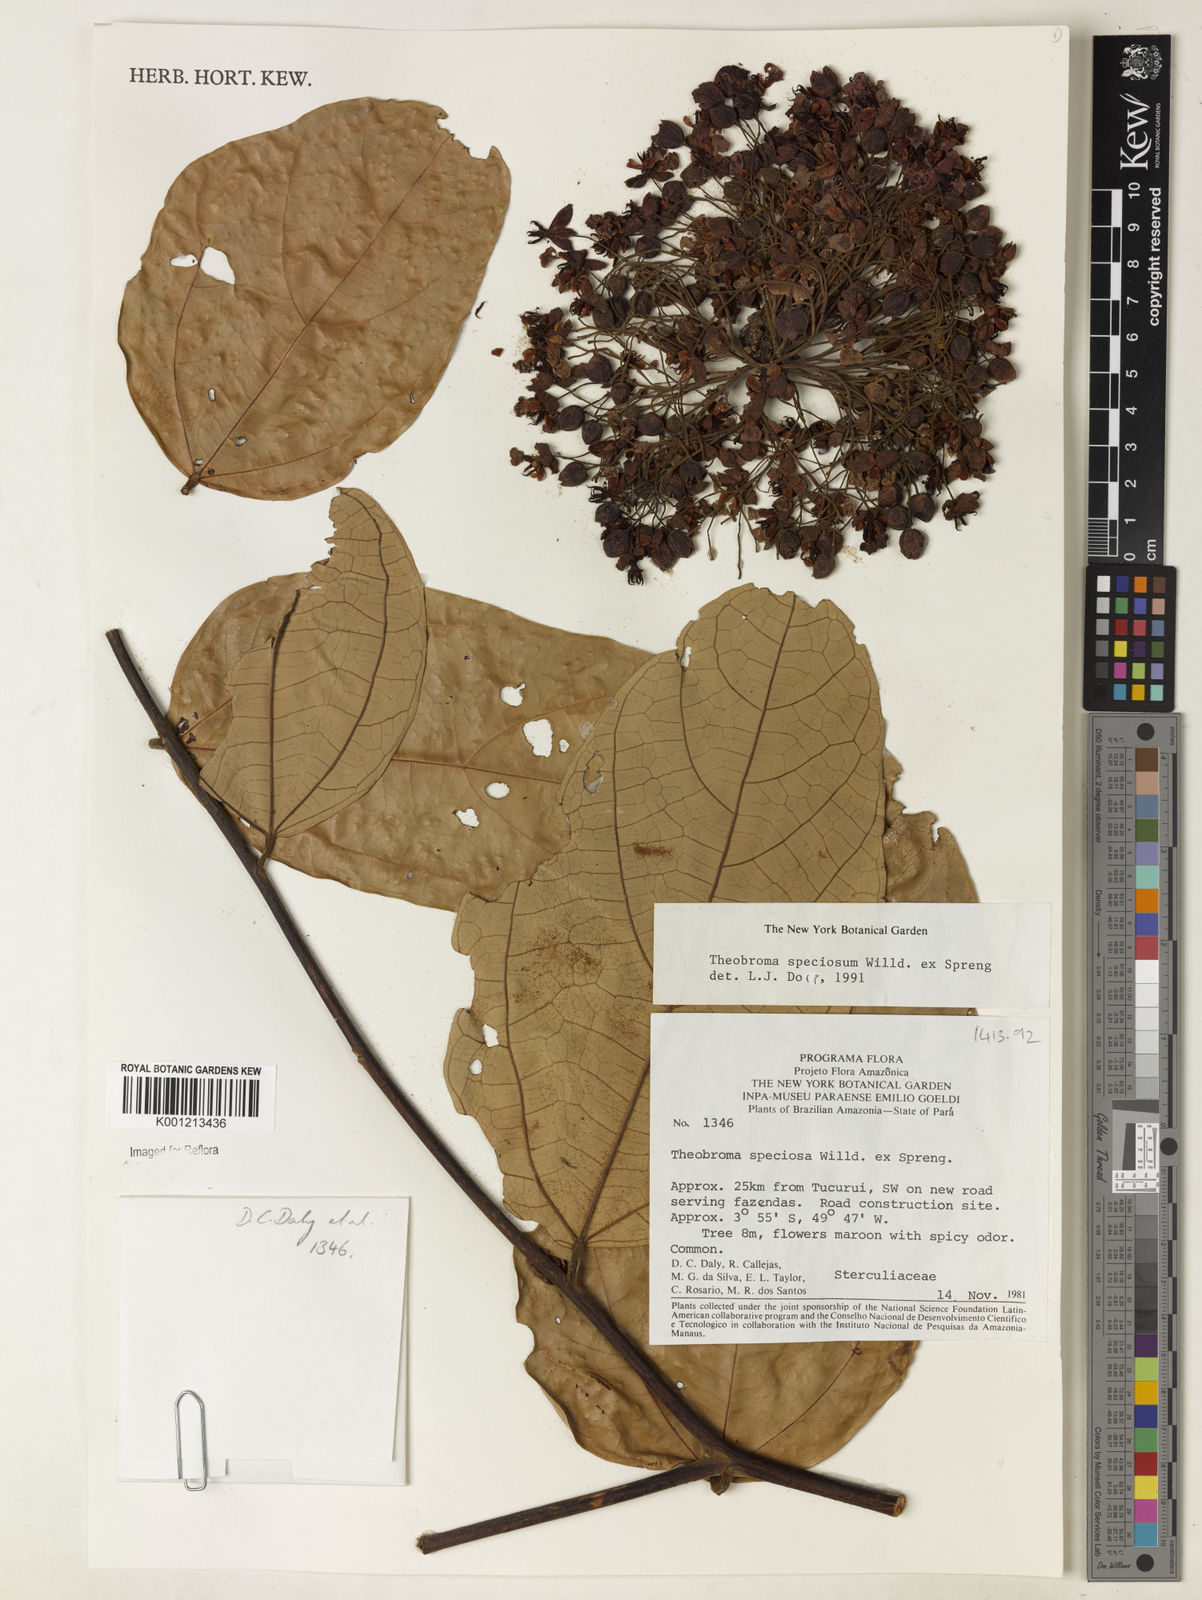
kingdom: Plantae
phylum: Tracheophyta
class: Magnoliopsida
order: Malvales
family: Malvaceae
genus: Theobroma
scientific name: Theobroma speciosum
